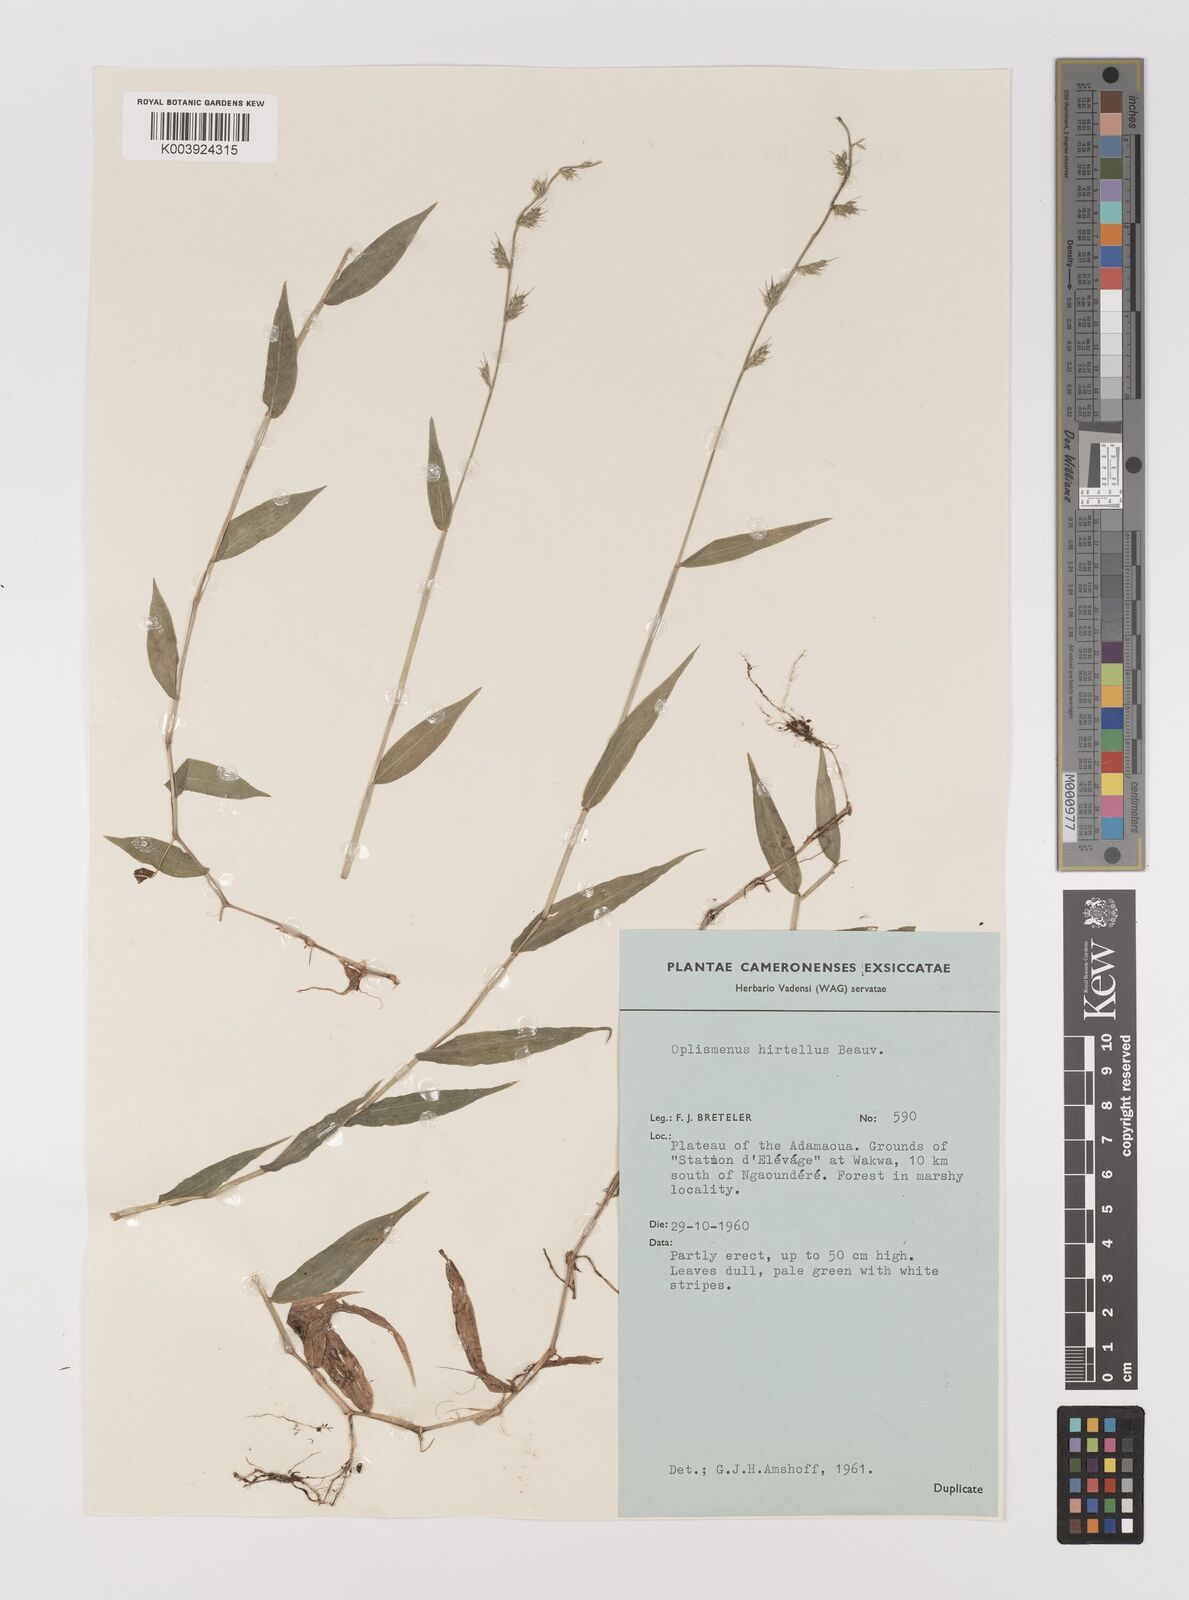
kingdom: Plantae
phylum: Tracheophyta
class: Liliopsida
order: Poales
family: Poaceae
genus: Oplismenus
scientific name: Oplismenus hirtellus
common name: Basketgrass
